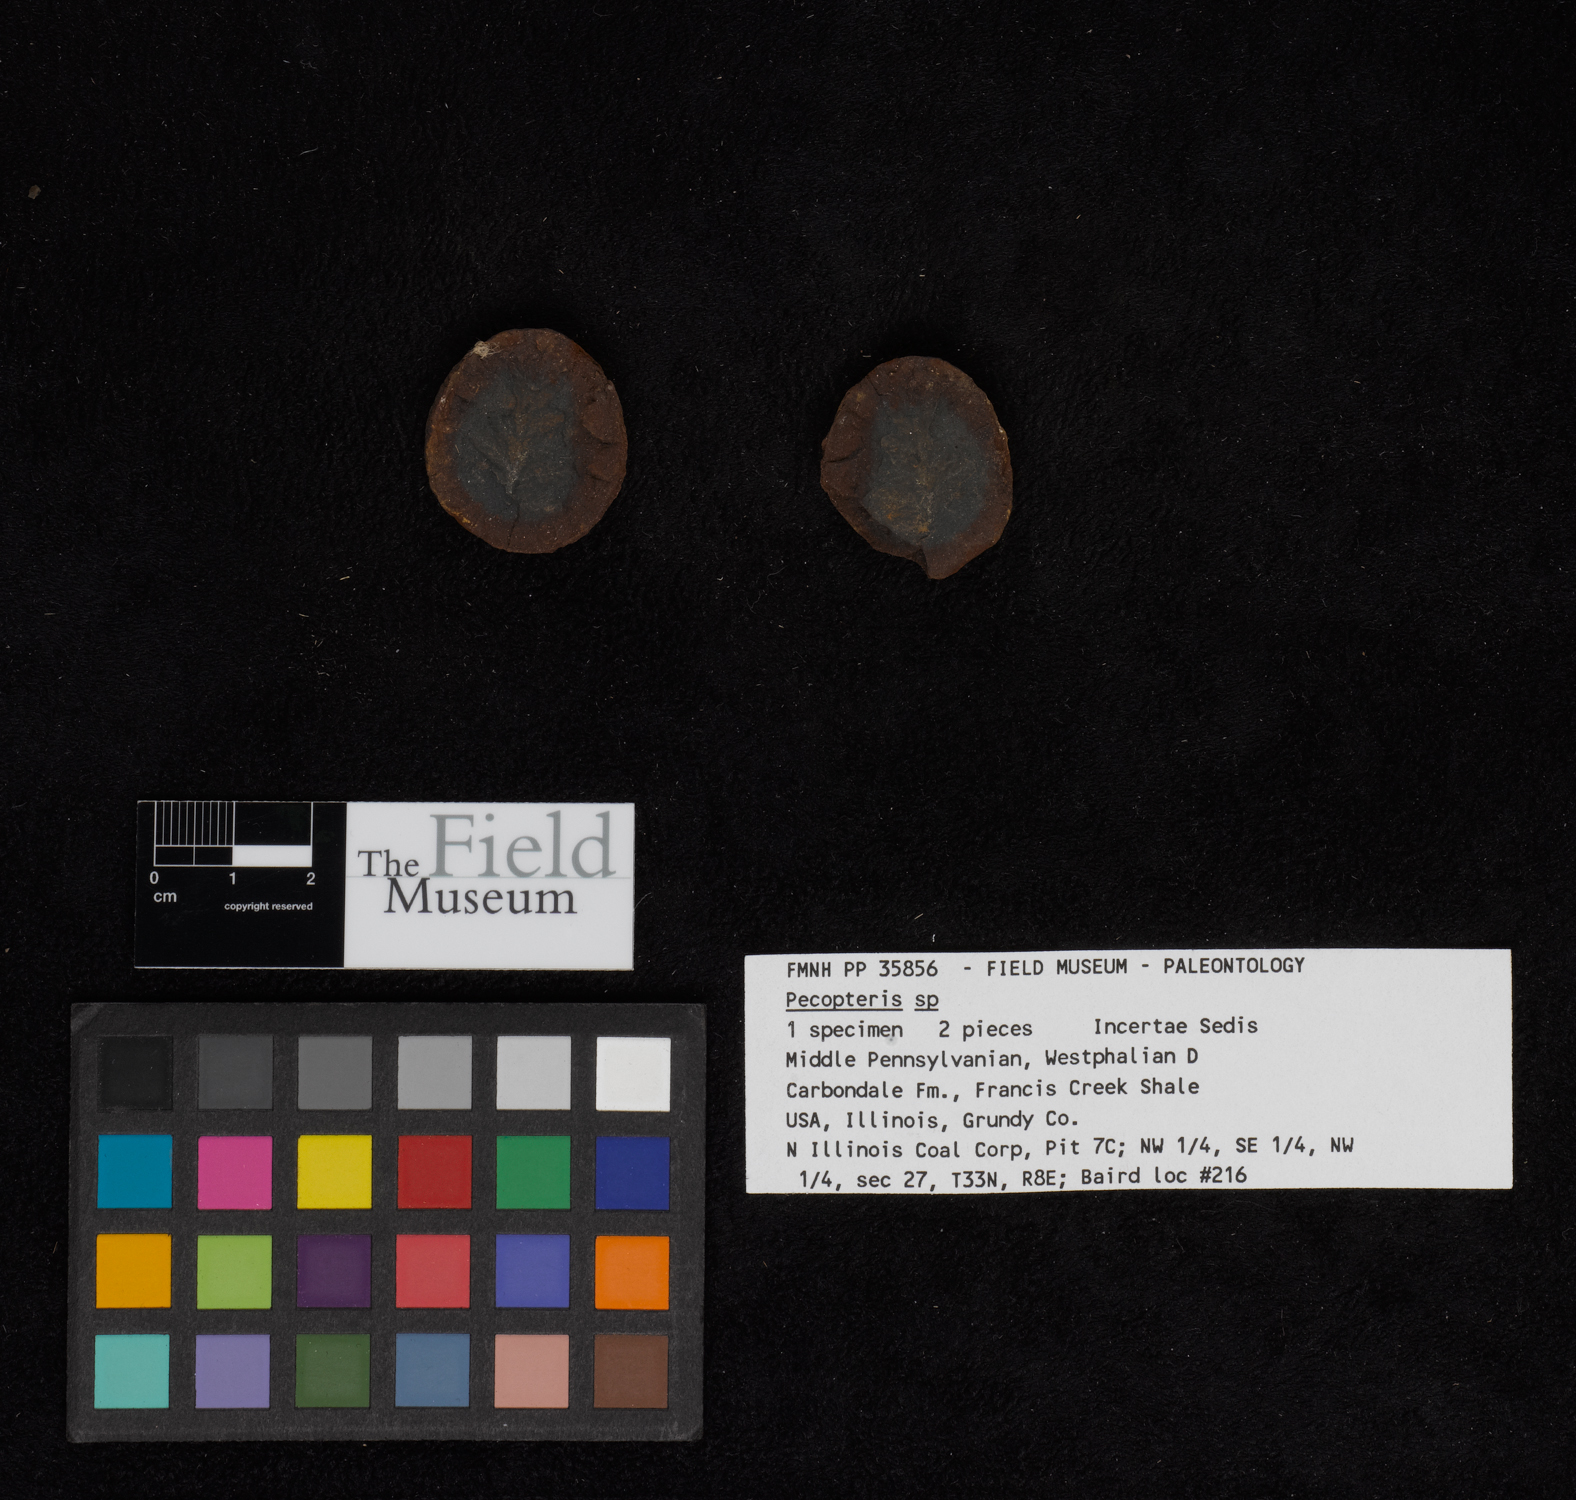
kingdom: Plantae
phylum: Tracheophyta
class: Polypodiopsida
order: Marattiales
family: Asterothecaceae
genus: Pecopteris
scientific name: Pecopteris
